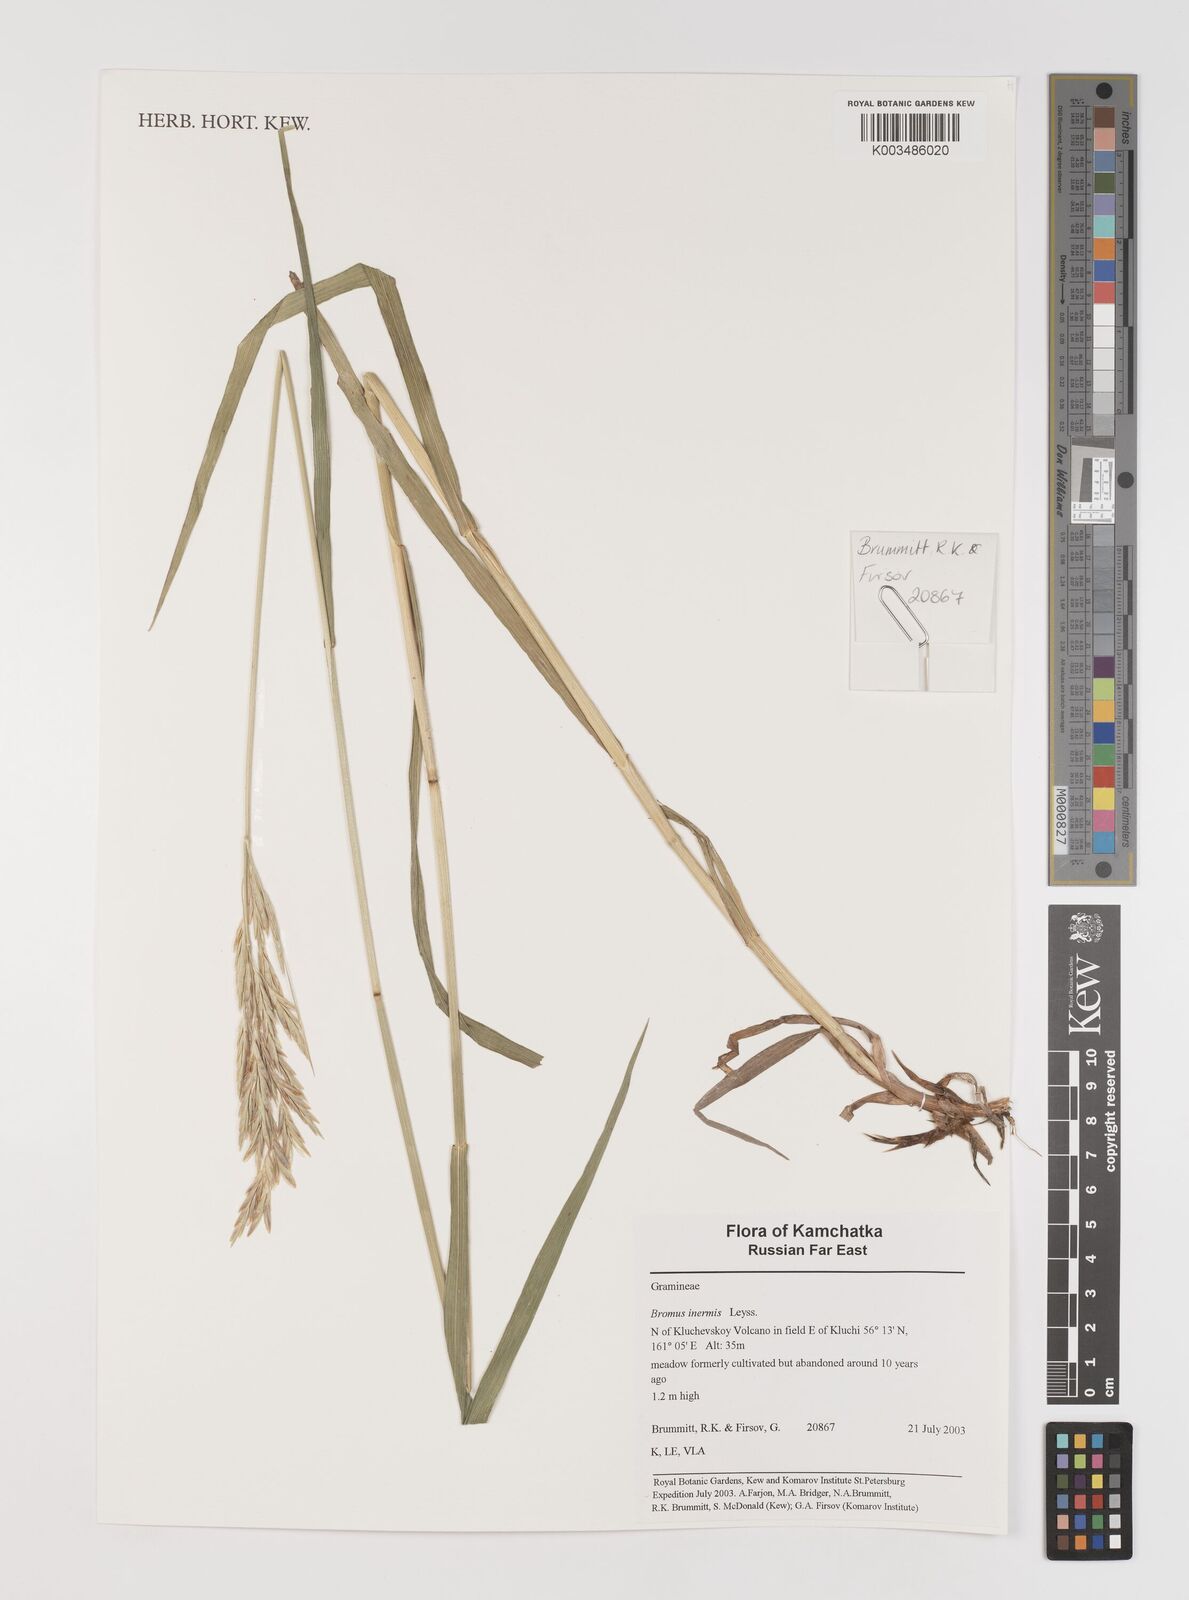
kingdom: Plantae
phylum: Tracheophyta
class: Liliopsida
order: Poales
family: Poaceae
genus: Bromus
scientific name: Bromus inermis
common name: Smooth brome
